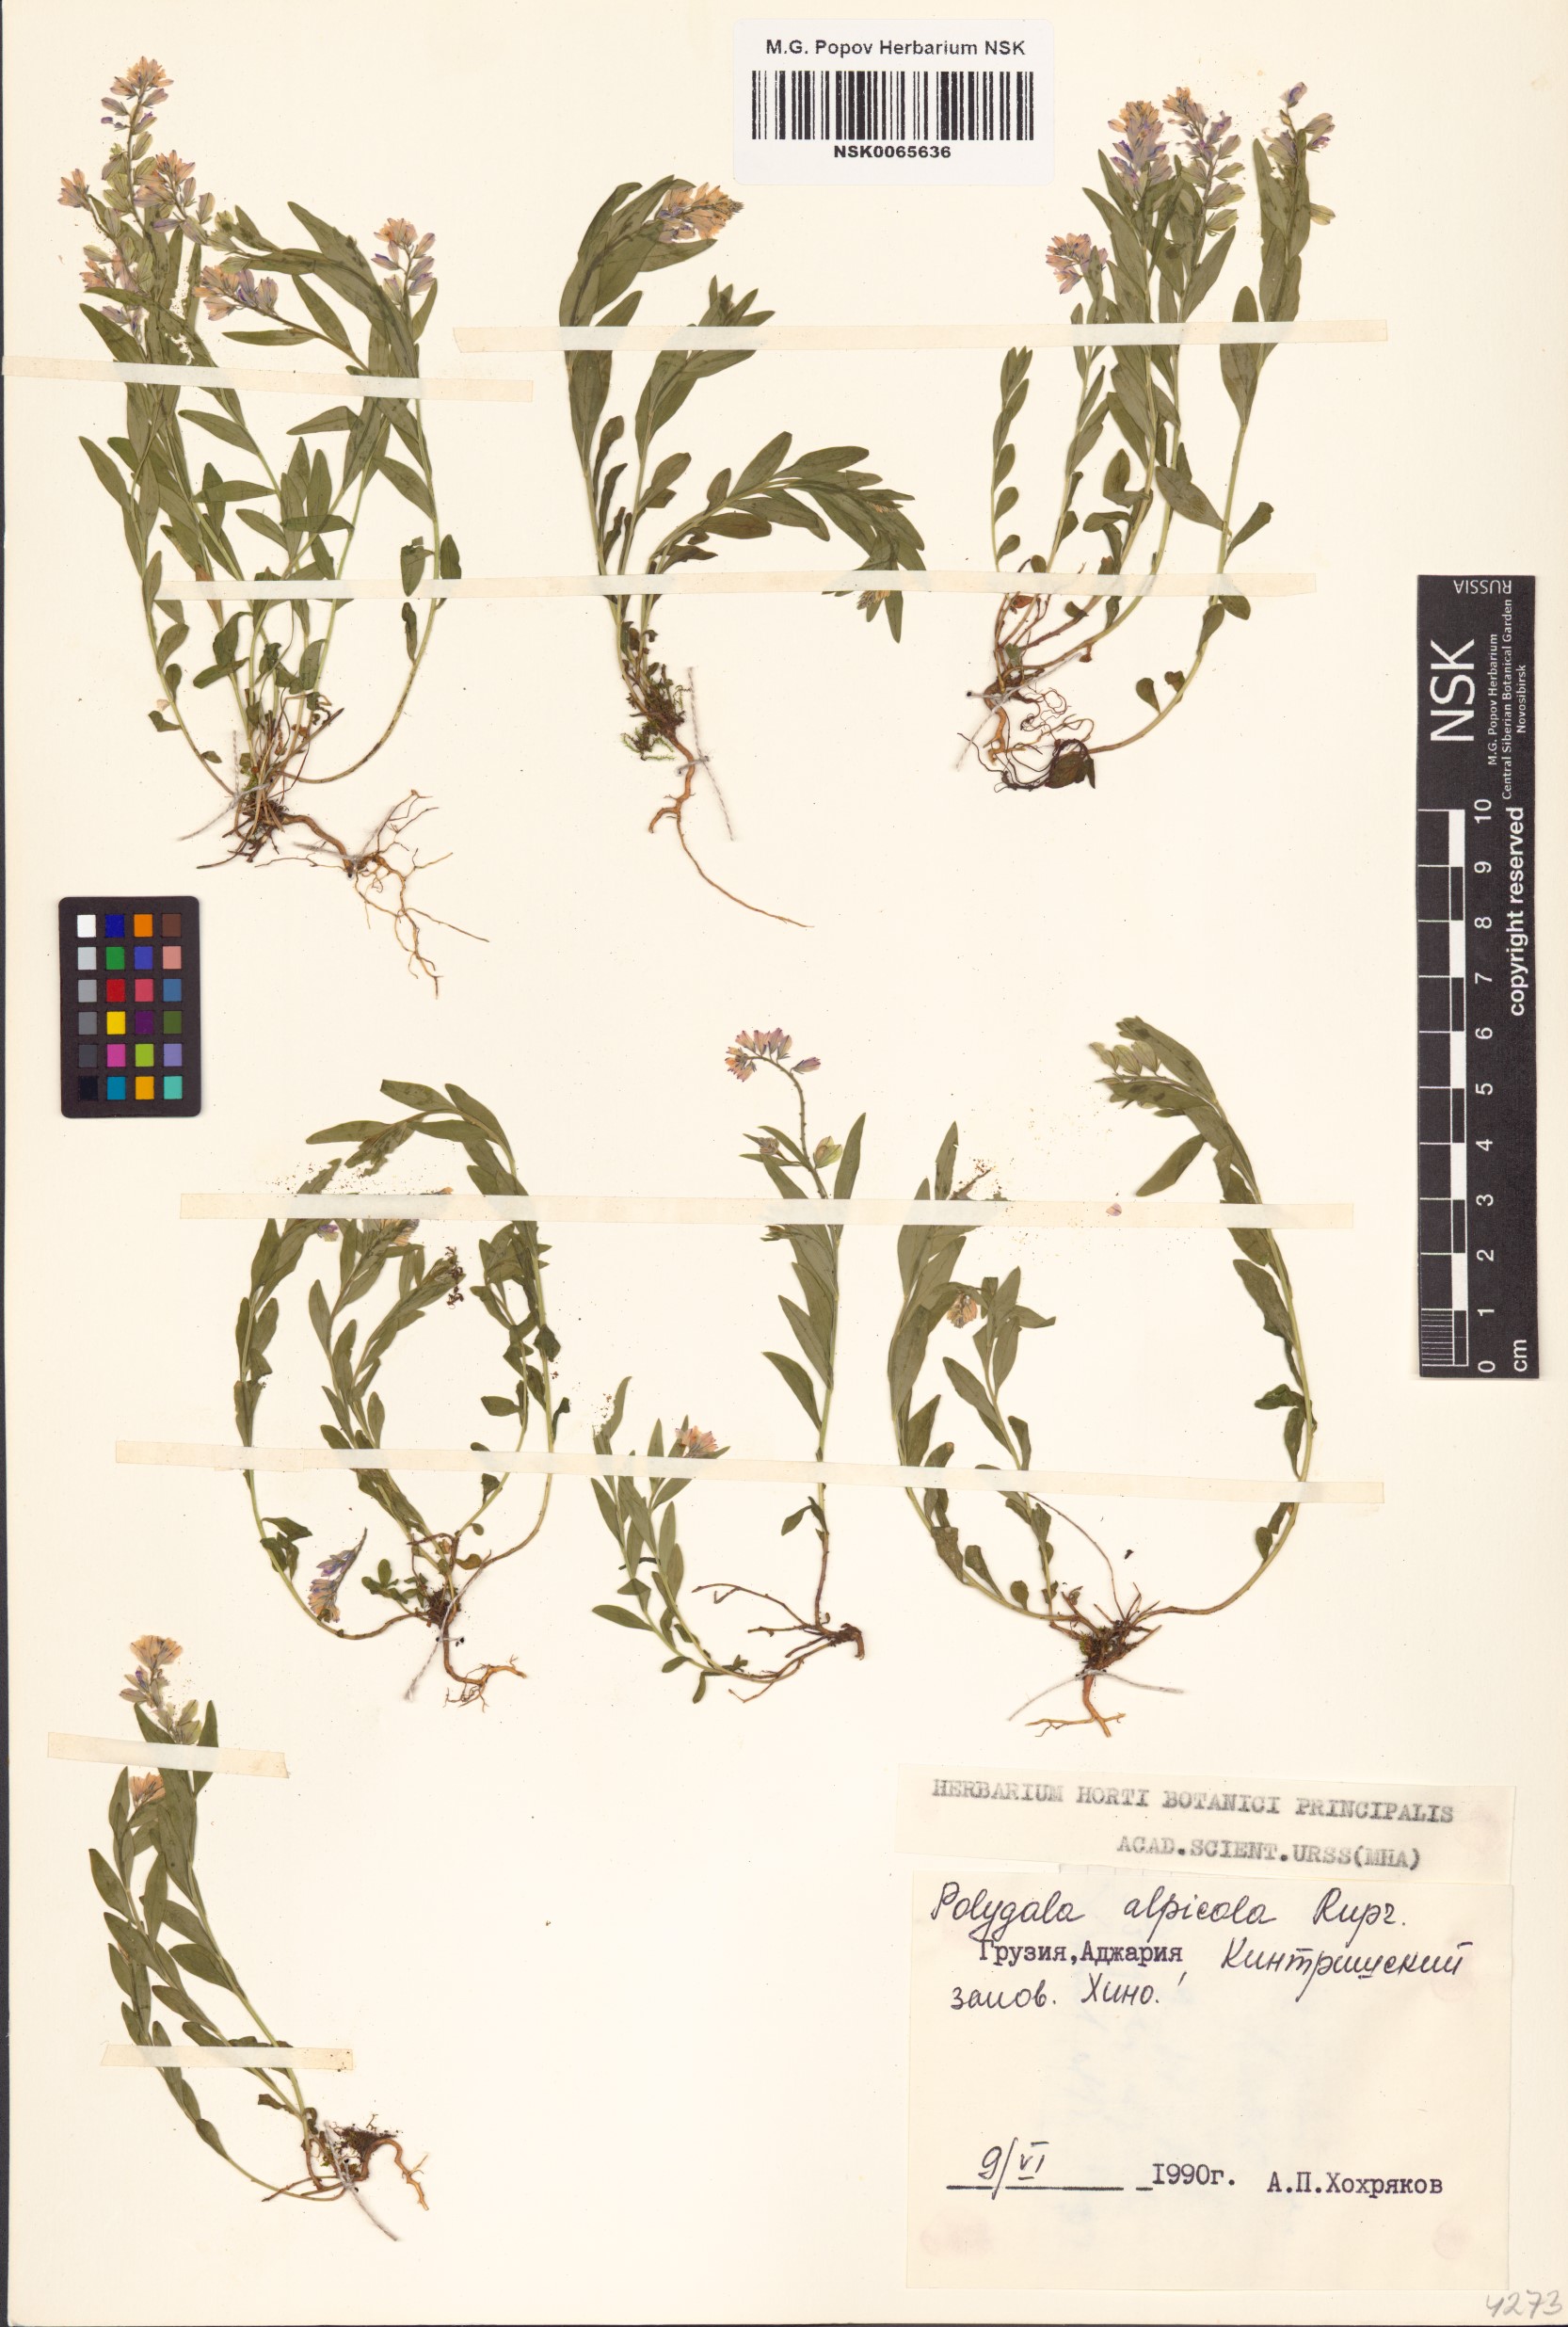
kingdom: Plantae
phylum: Tracheophyta
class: Magnoliopsida
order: Fabales
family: Polygalaceae
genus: Polygala
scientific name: Polygala alpicola
